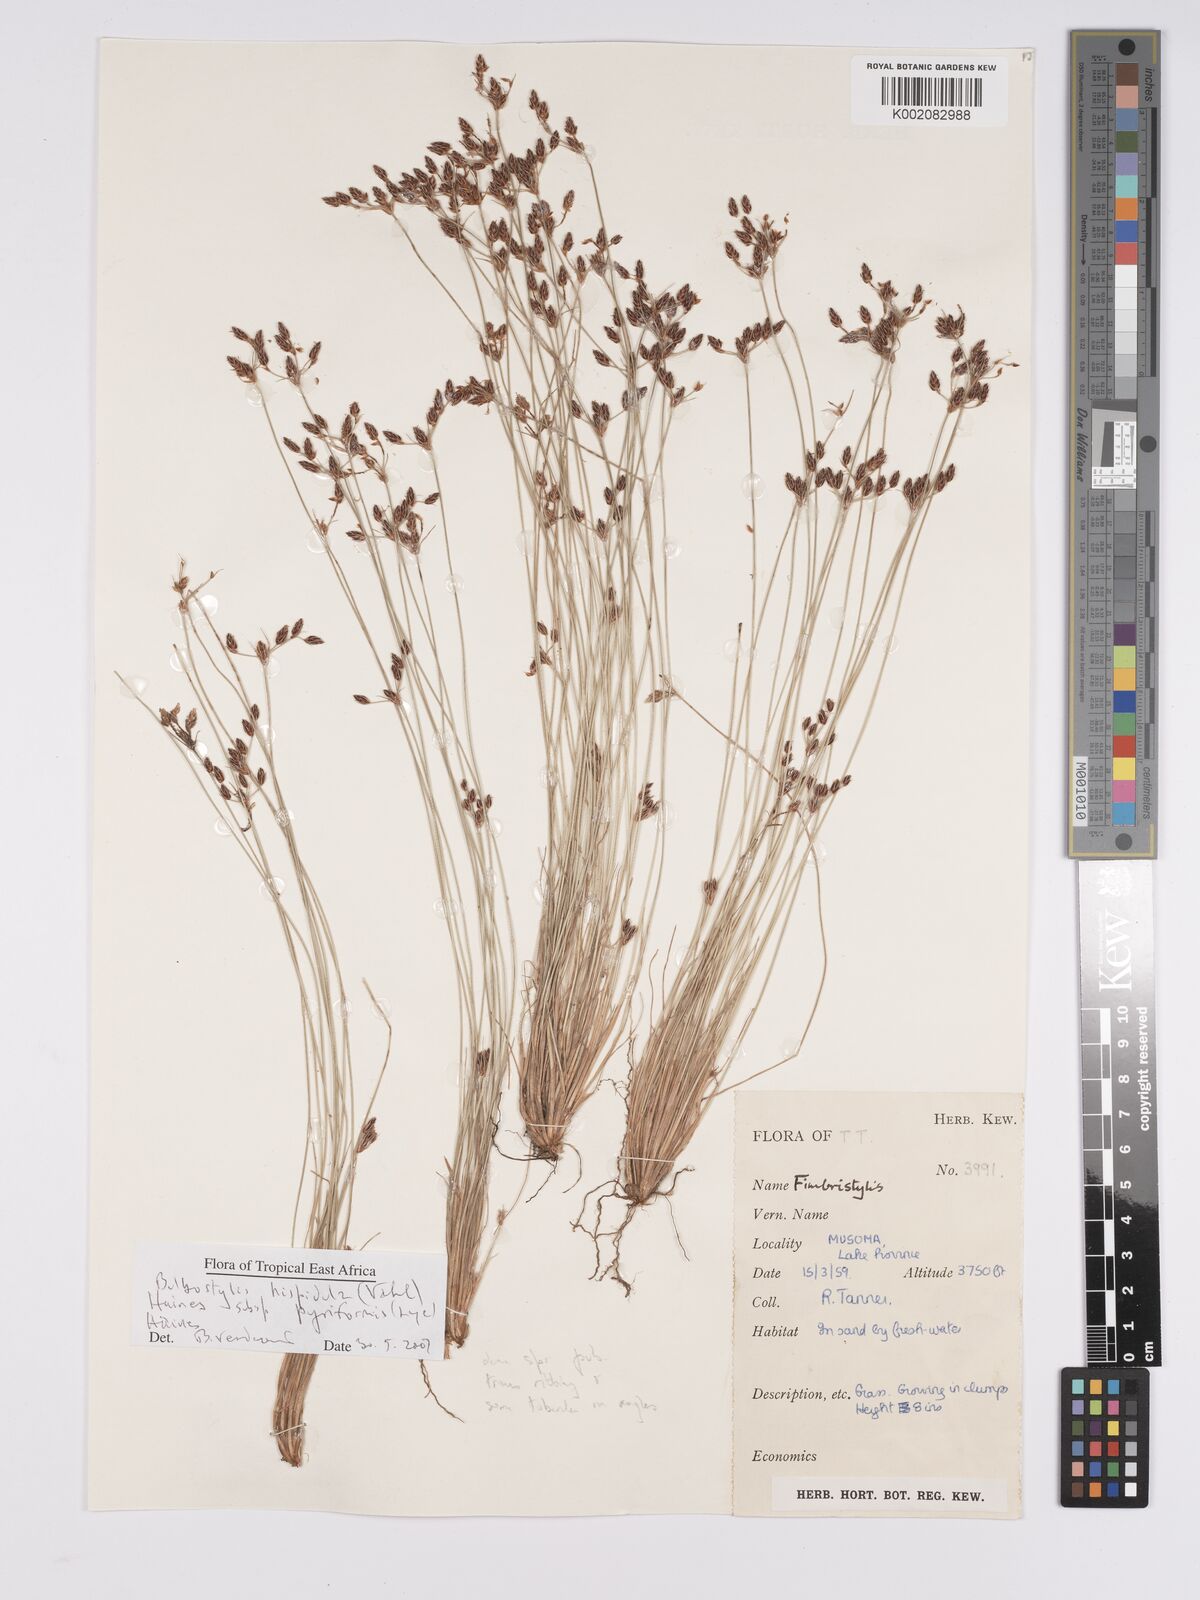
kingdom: Plantae
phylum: Tracheophyta
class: Liliopsida
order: Poales
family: Cyperaceae
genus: Bulbostylis
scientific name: Bulbostylis hispidula
